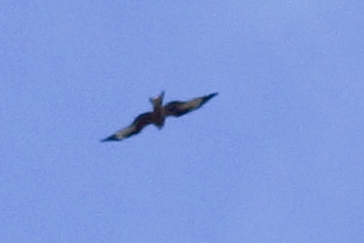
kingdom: Animalia
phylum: Chordata
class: Aves
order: Accipitriformes
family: Accipitridae
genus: Milvus
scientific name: Milvus milvus
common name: Rød glente
